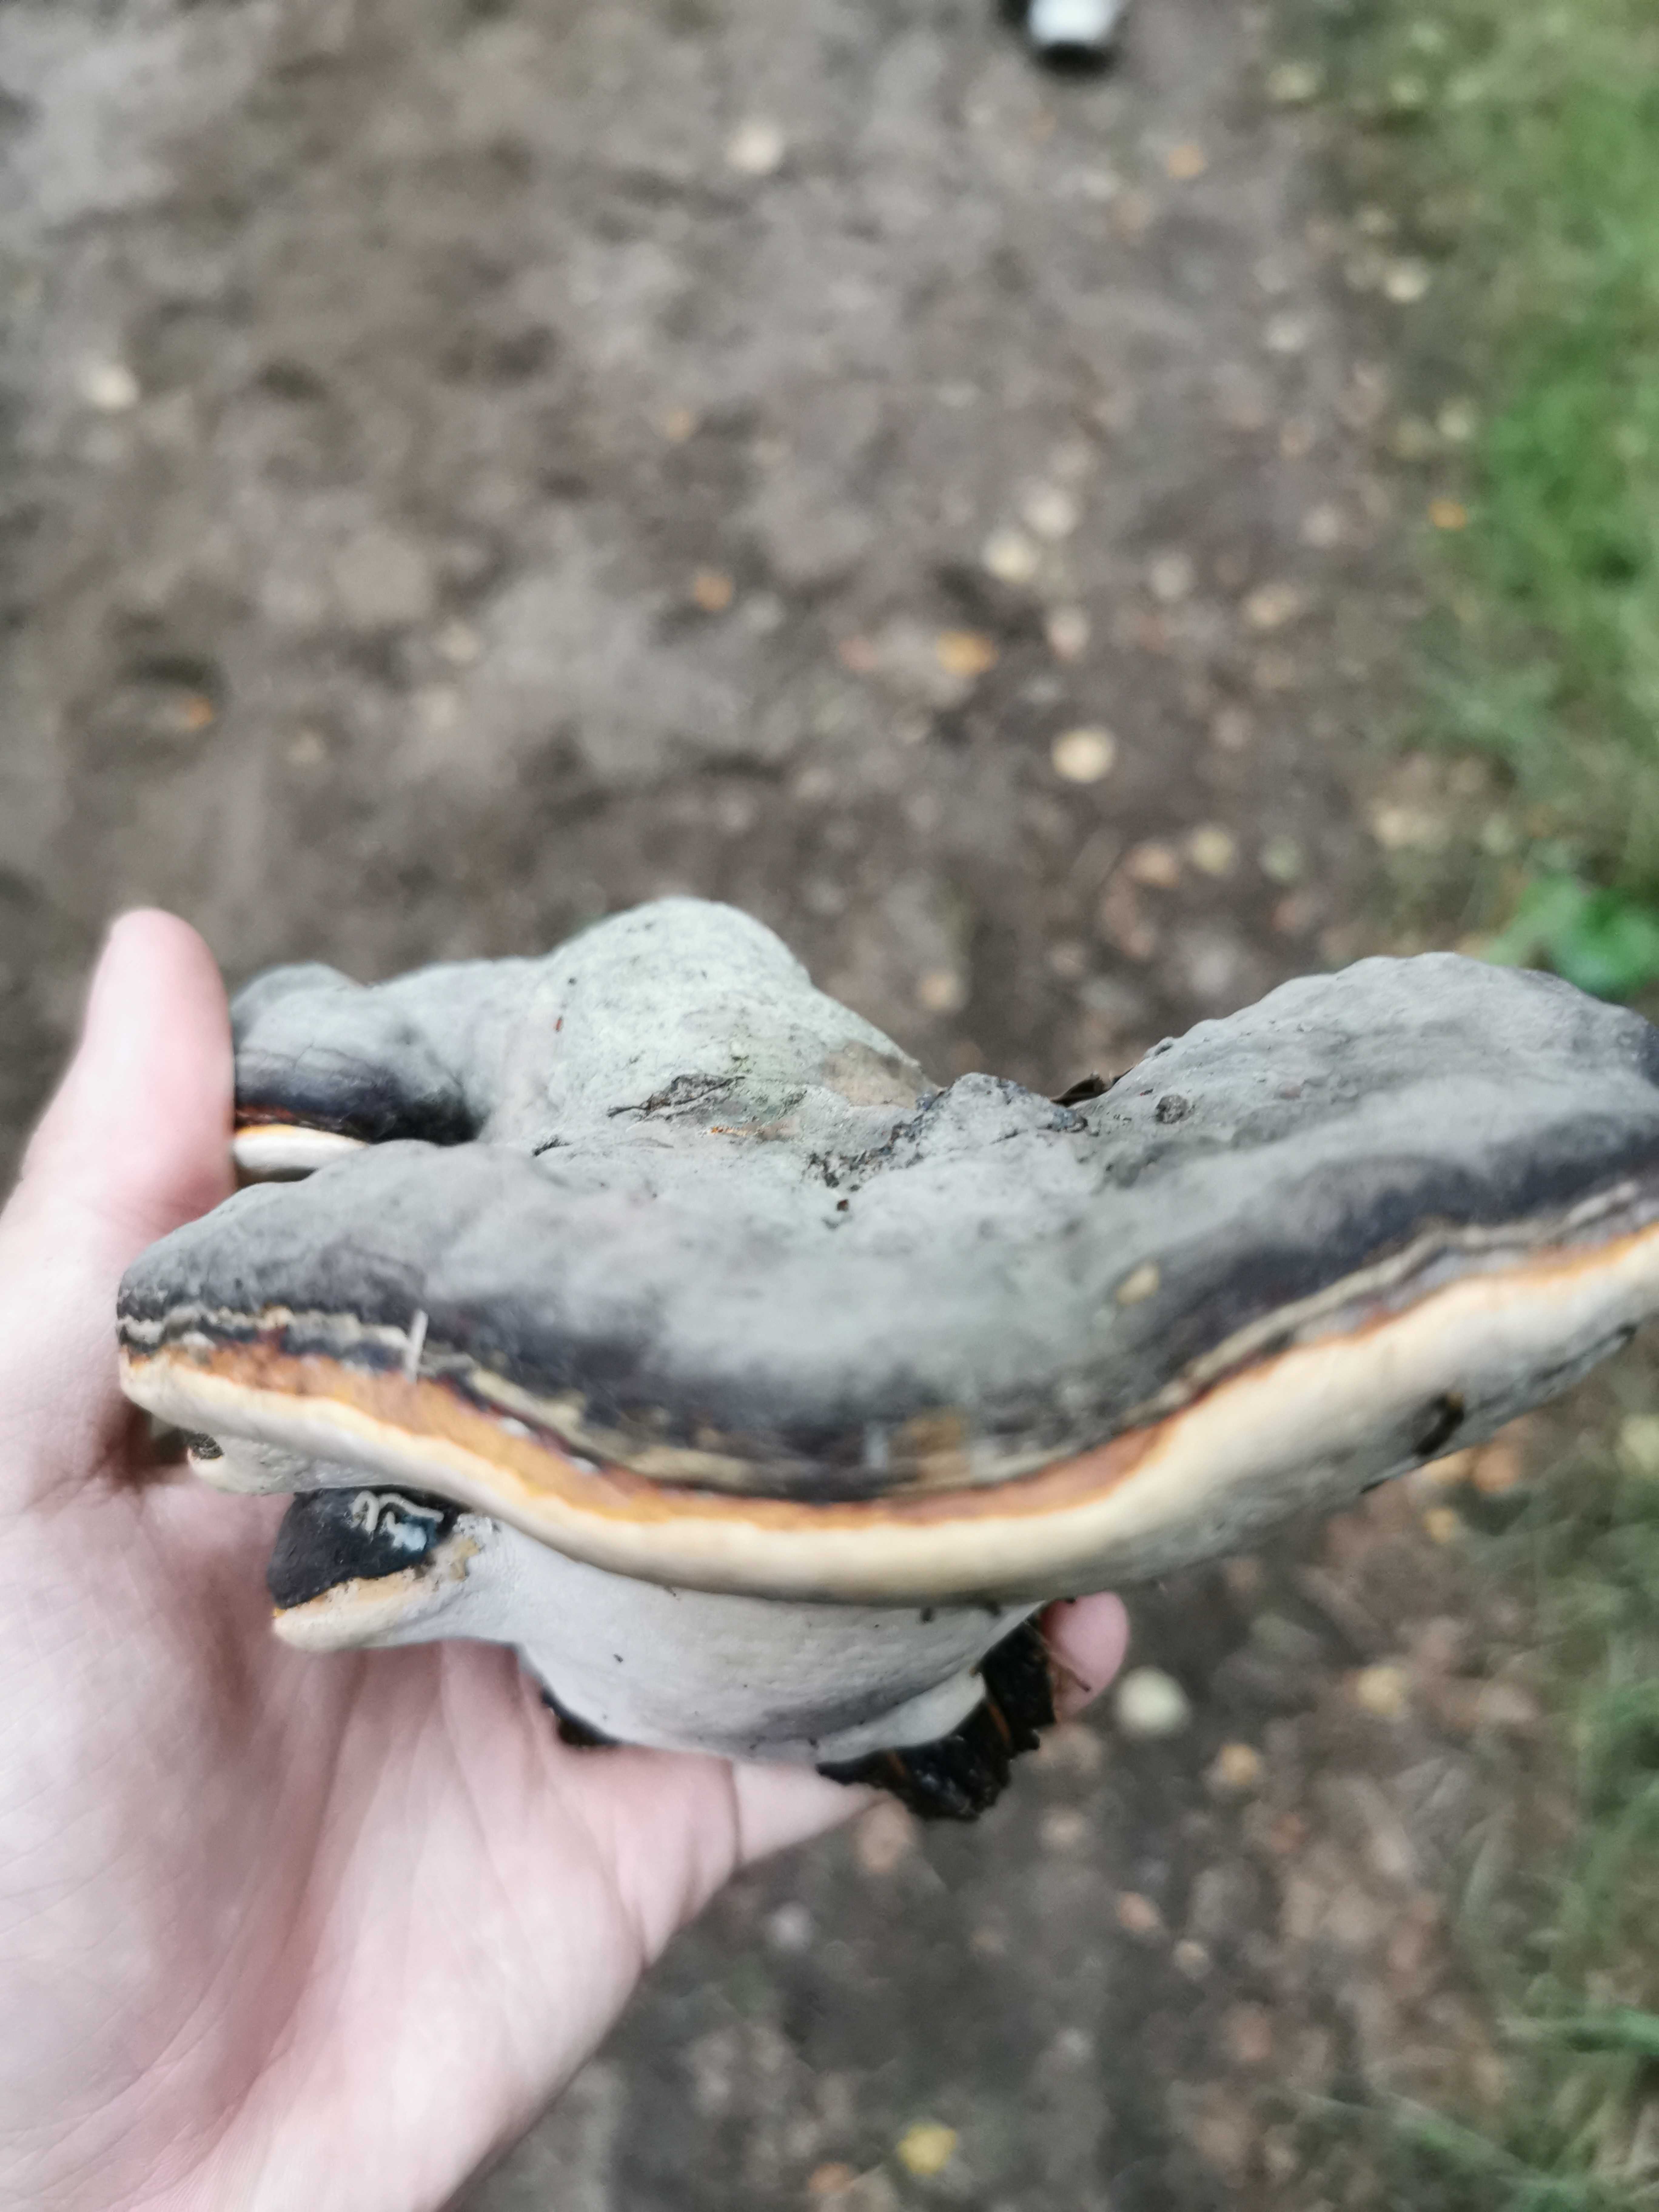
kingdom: Fungi
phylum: Basidiomycota
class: Agaricomycetes
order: Polyporales
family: Fomitopsidaceae
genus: Fomitopsis
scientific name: Fomitopsis pinicola
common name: randbæltet hovporesvamp
